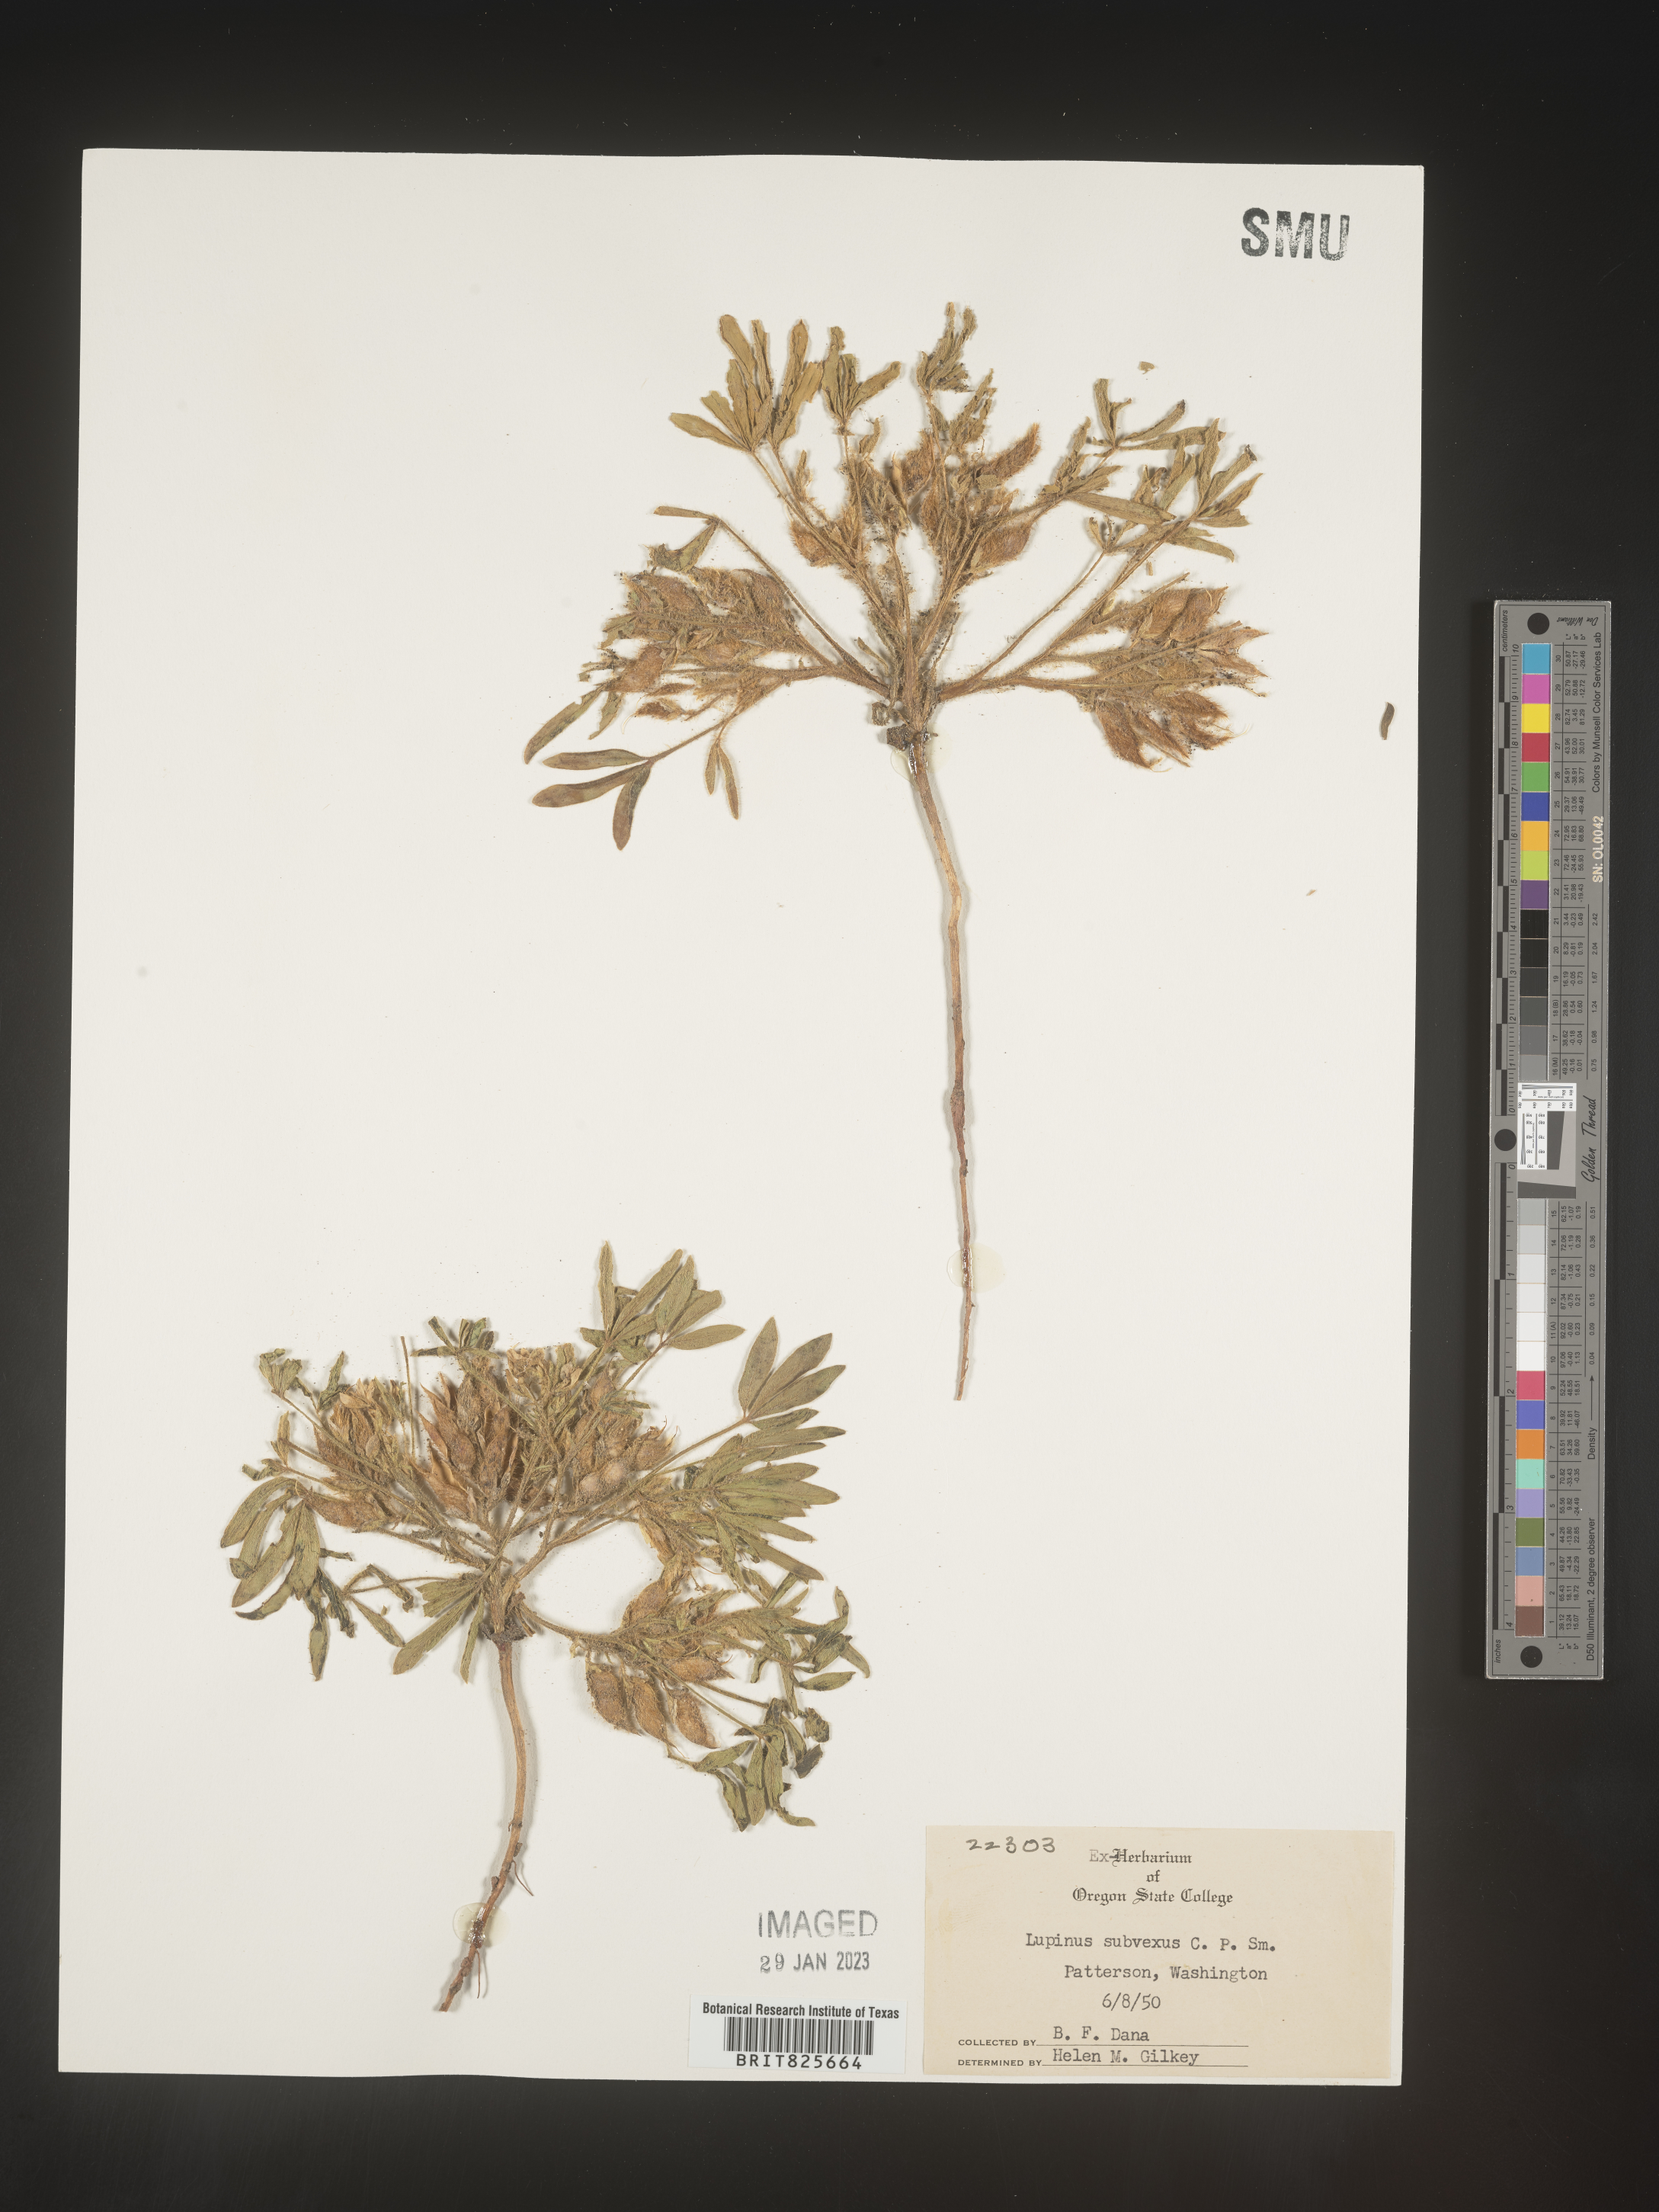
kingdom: Plantae
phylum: Tracheophyta
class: Magnoliopsida
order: Fabales
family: Fabaceae
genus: Lupinus
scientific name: Lupinus
